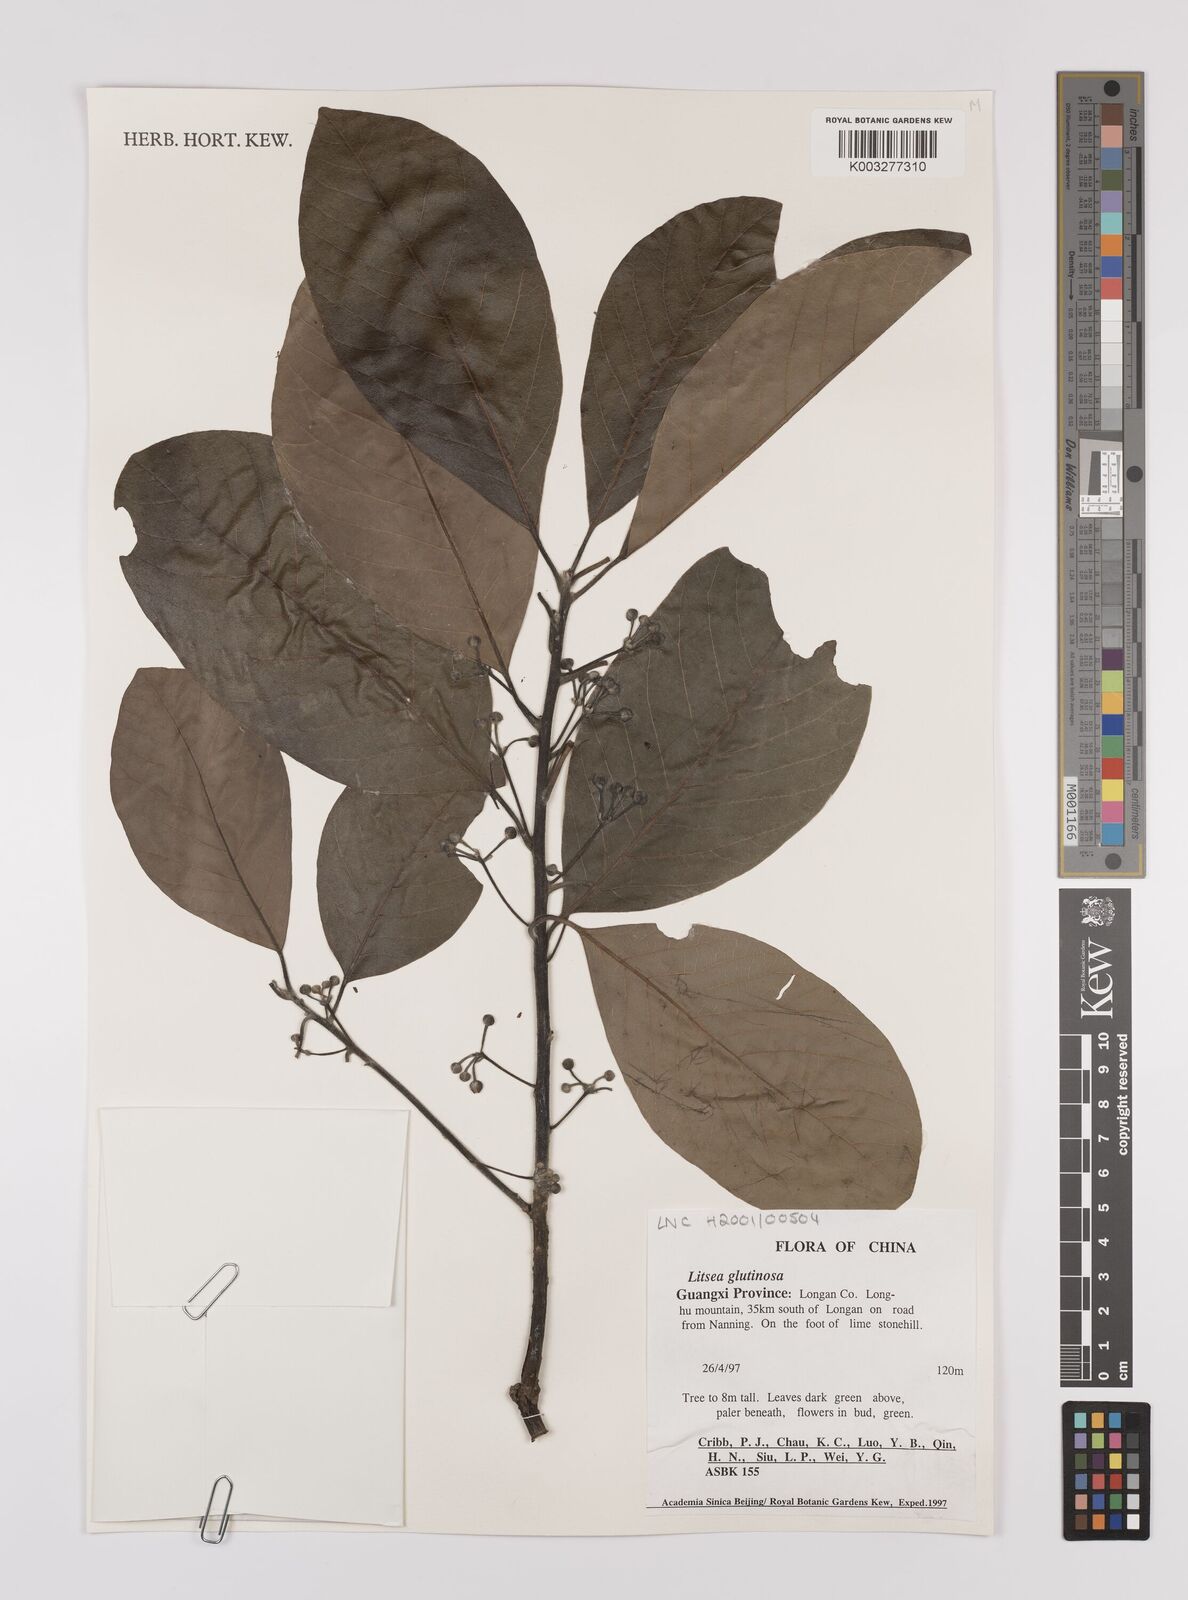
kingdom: Plantae
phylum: Tracheophyta
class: Magnoliopsida
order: Laurales
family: Lauraceae
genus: Litsea
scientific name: Litsea glutinosa
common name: Indian-laurel
